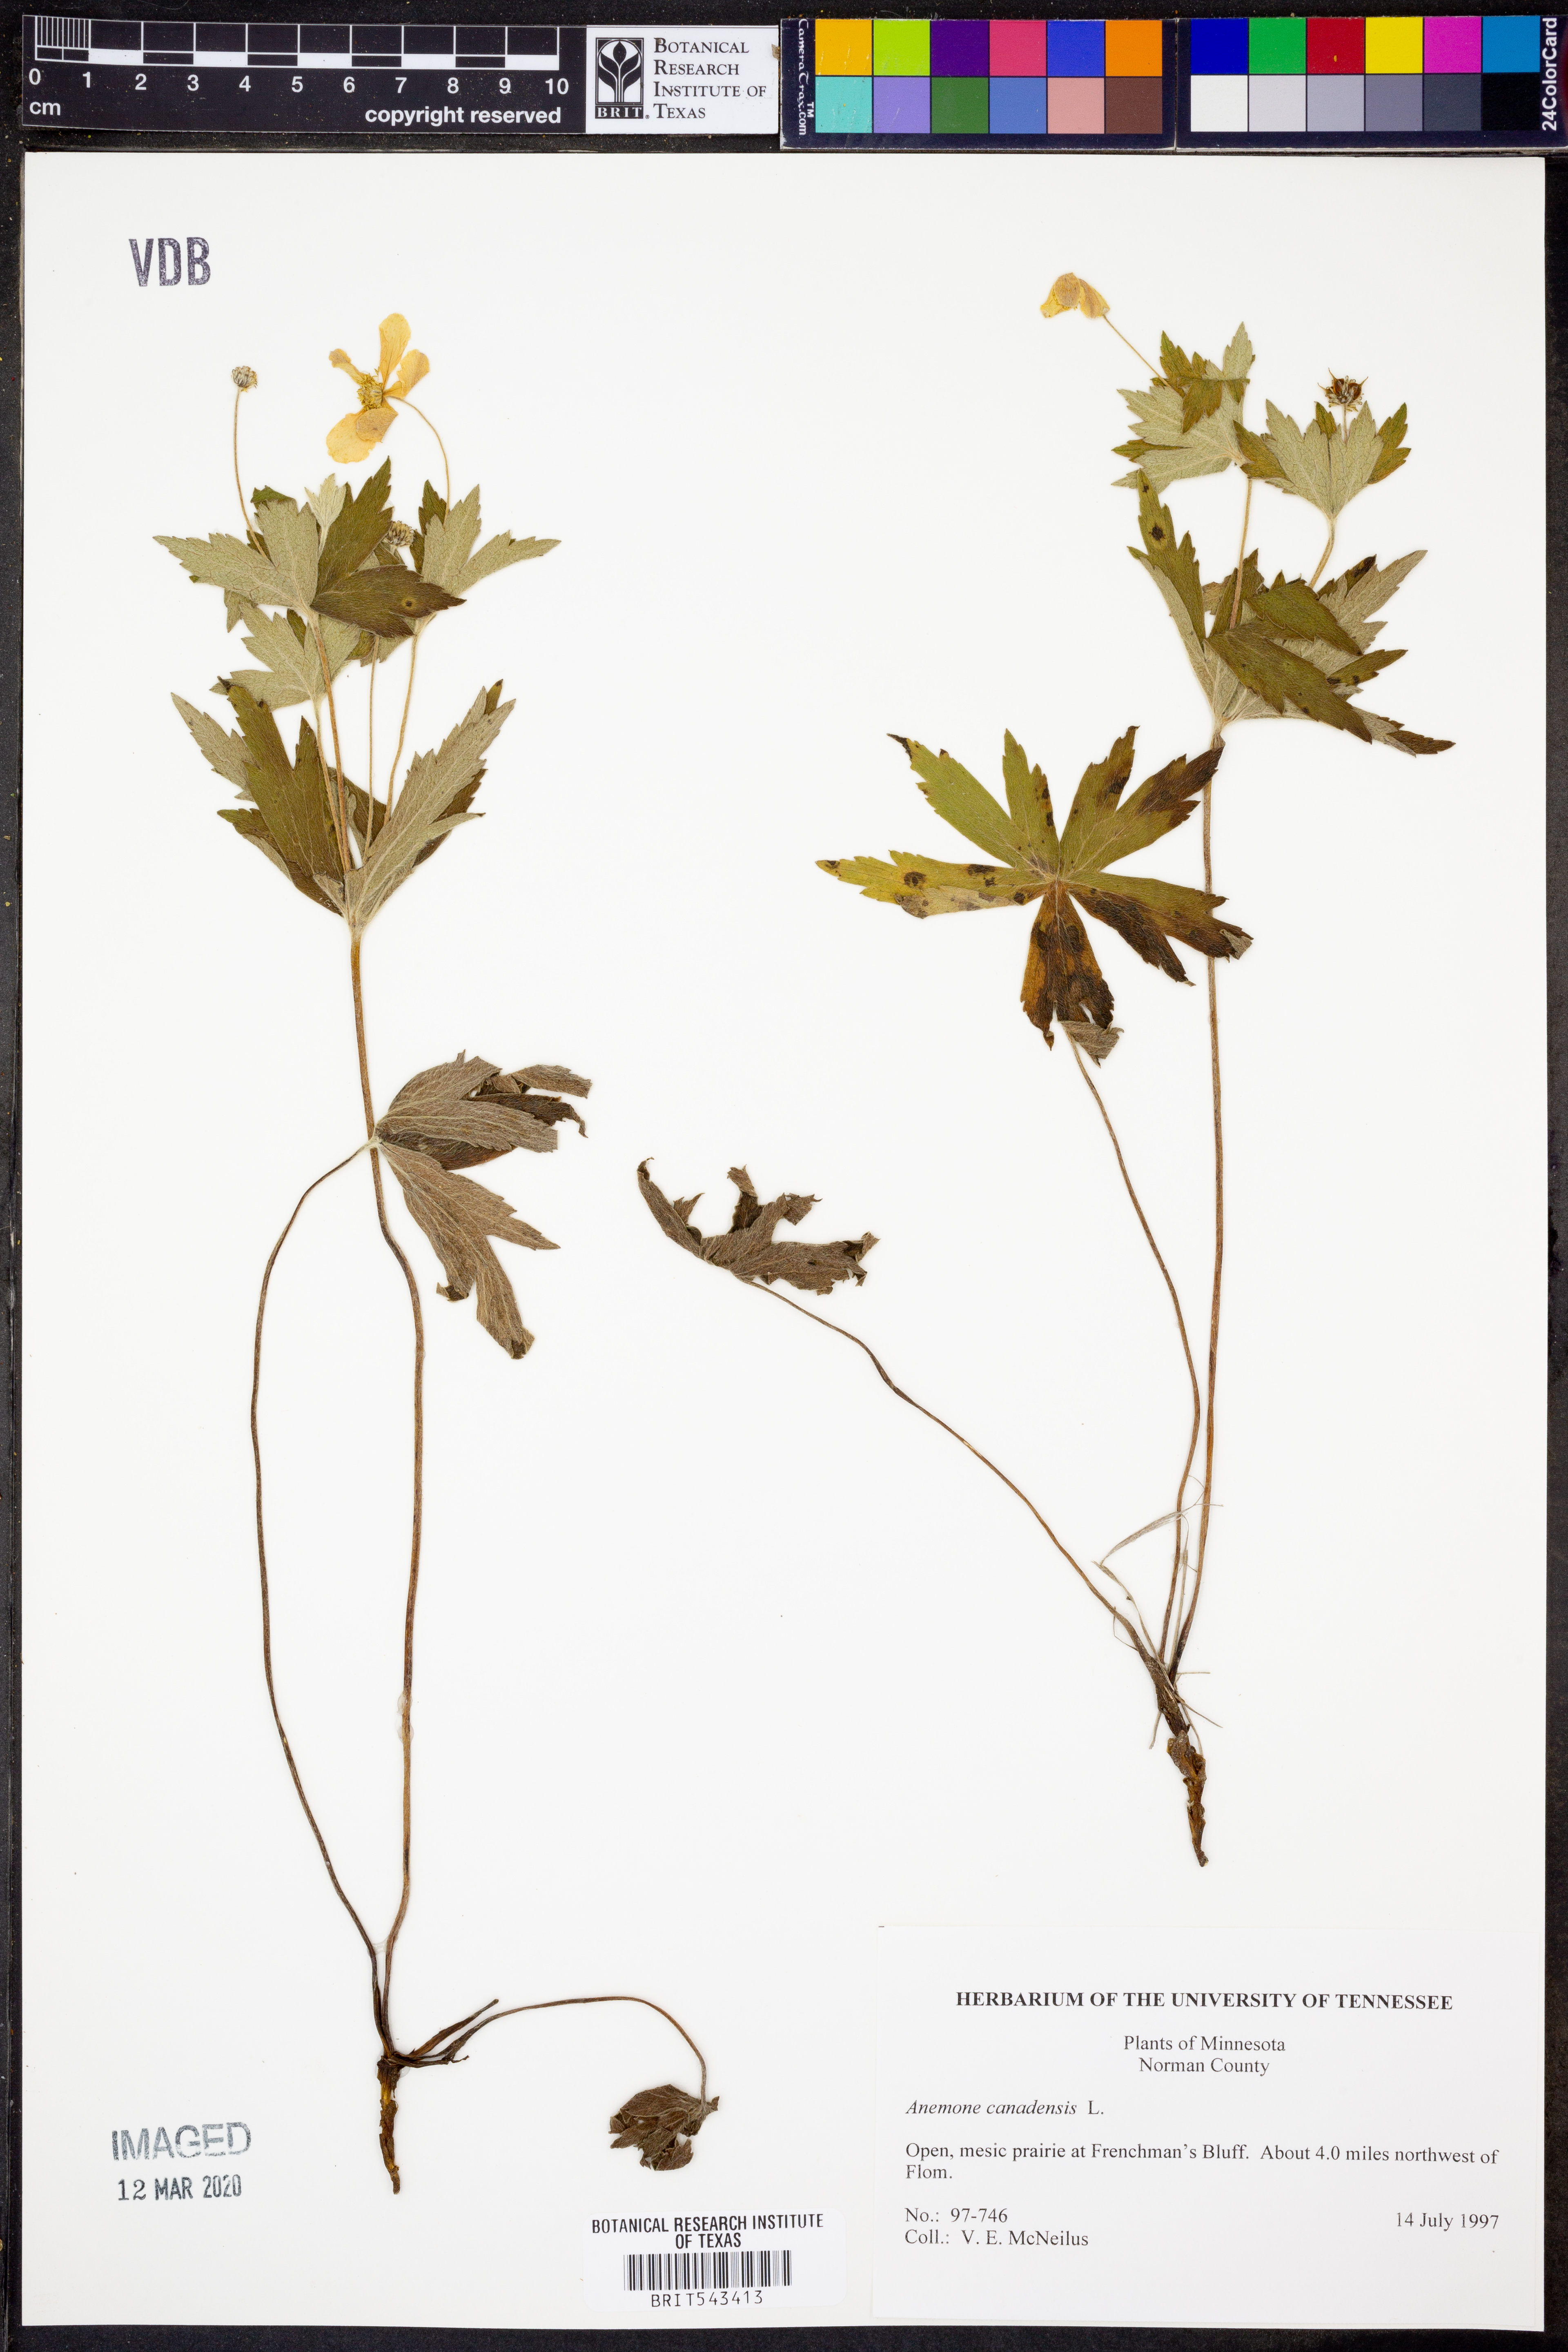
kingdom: Plantae
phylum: Tracheophyta
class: Magnoliopsida
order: Ranunculales
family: Ranunculaceae
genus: Anemonastrum
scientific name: Anemonastrum canadense
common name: Canada anemone
